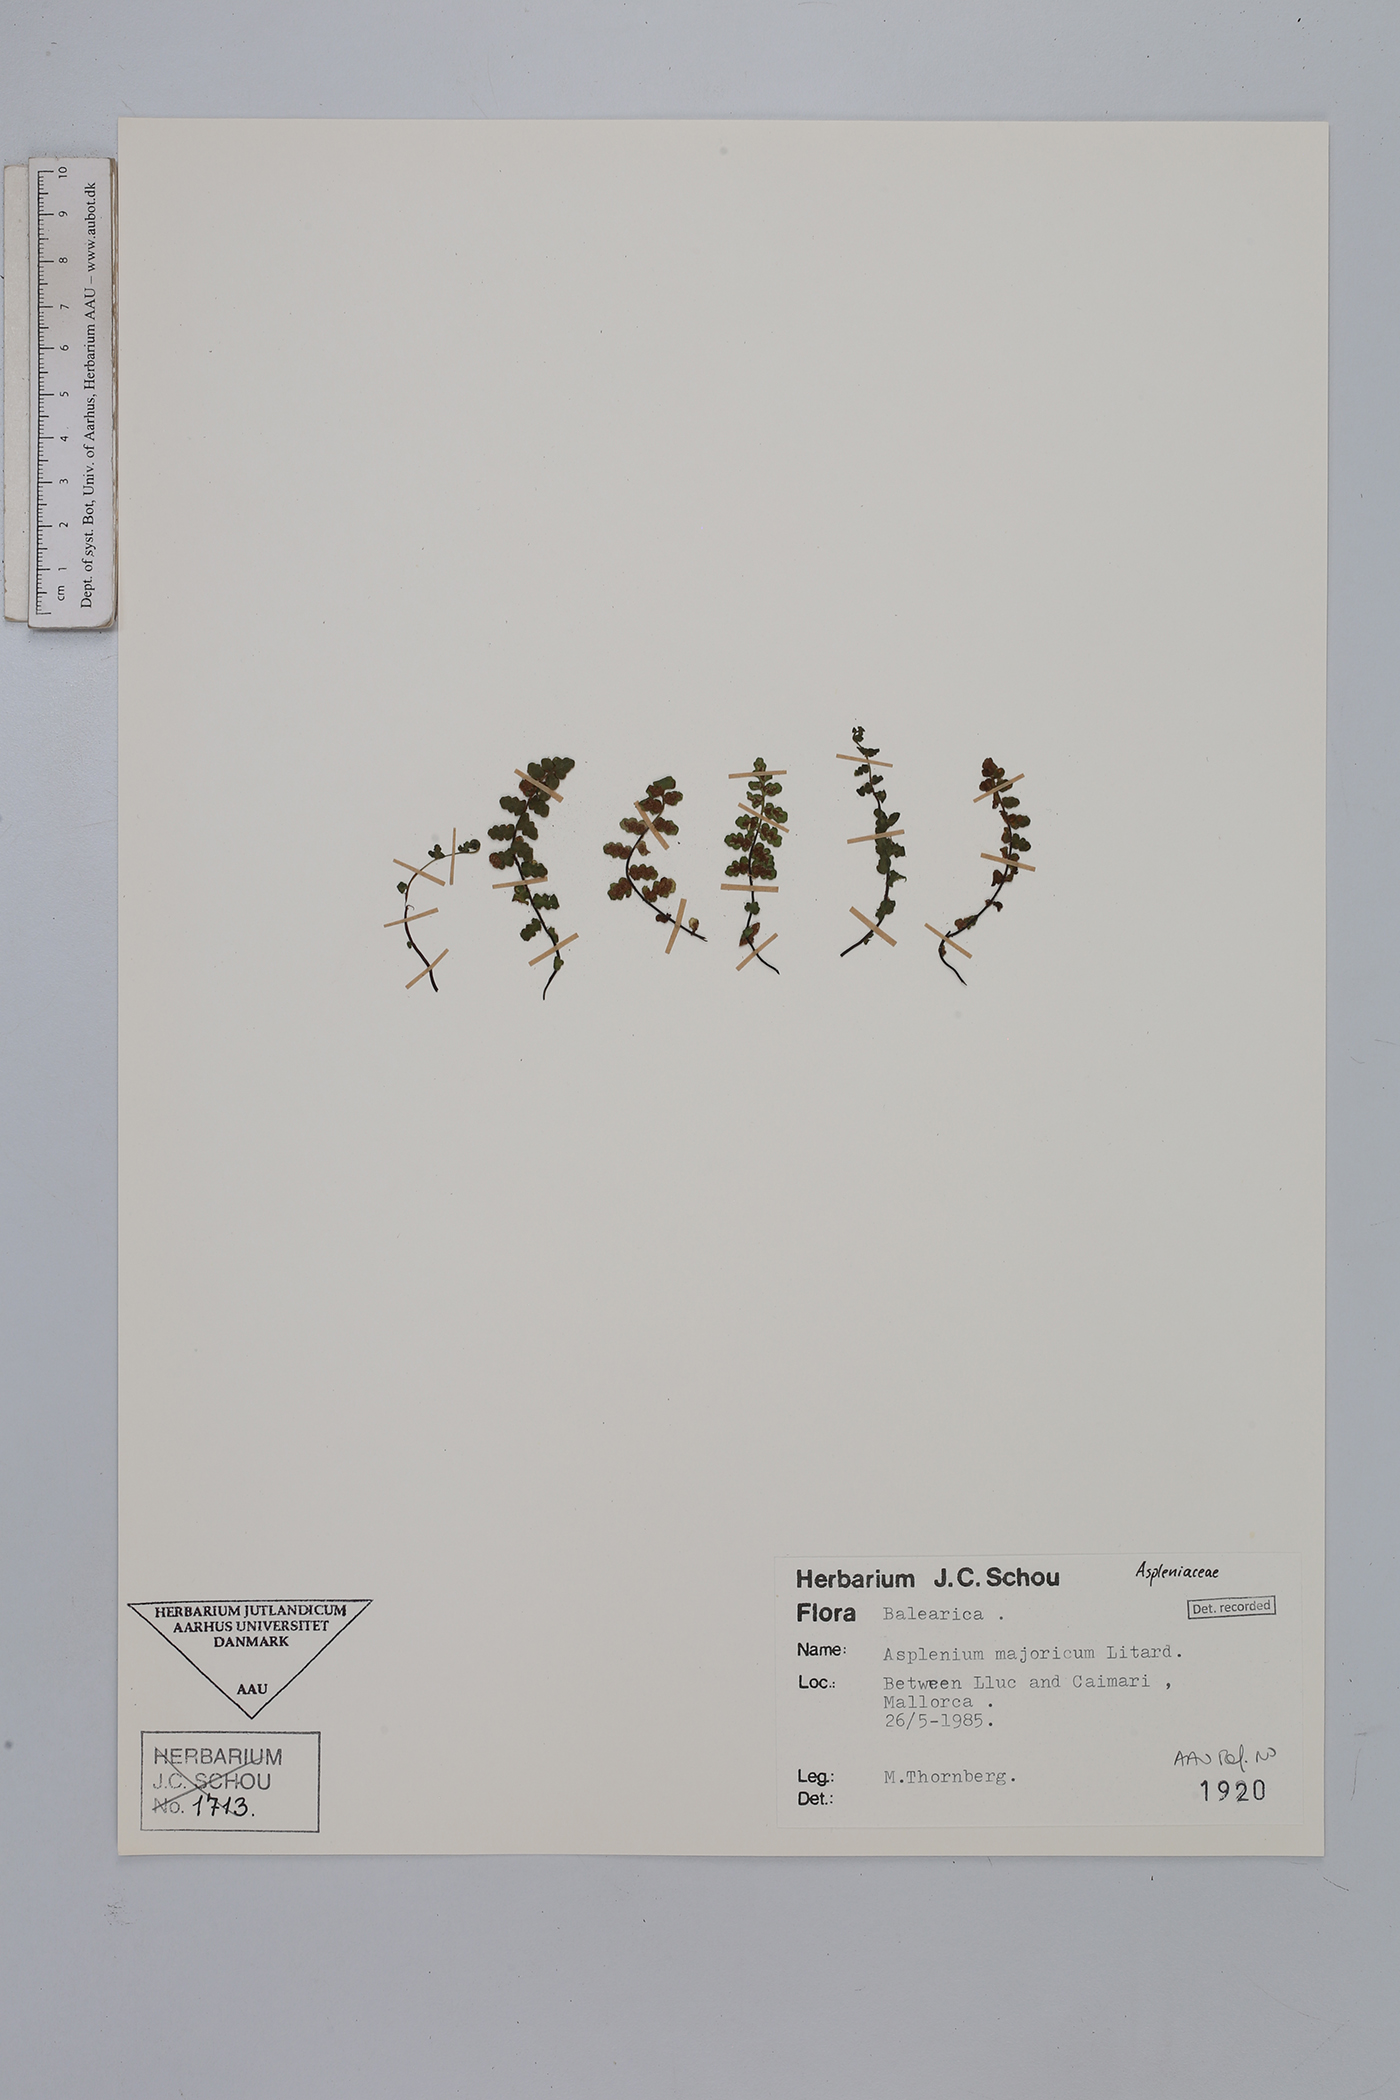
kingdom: Plantae
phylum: Tracheophyta
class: Polypodiopsida
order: Polypodiales
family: Aspleniaceae
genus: Asplenium
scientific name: Asplenium petrarchae
